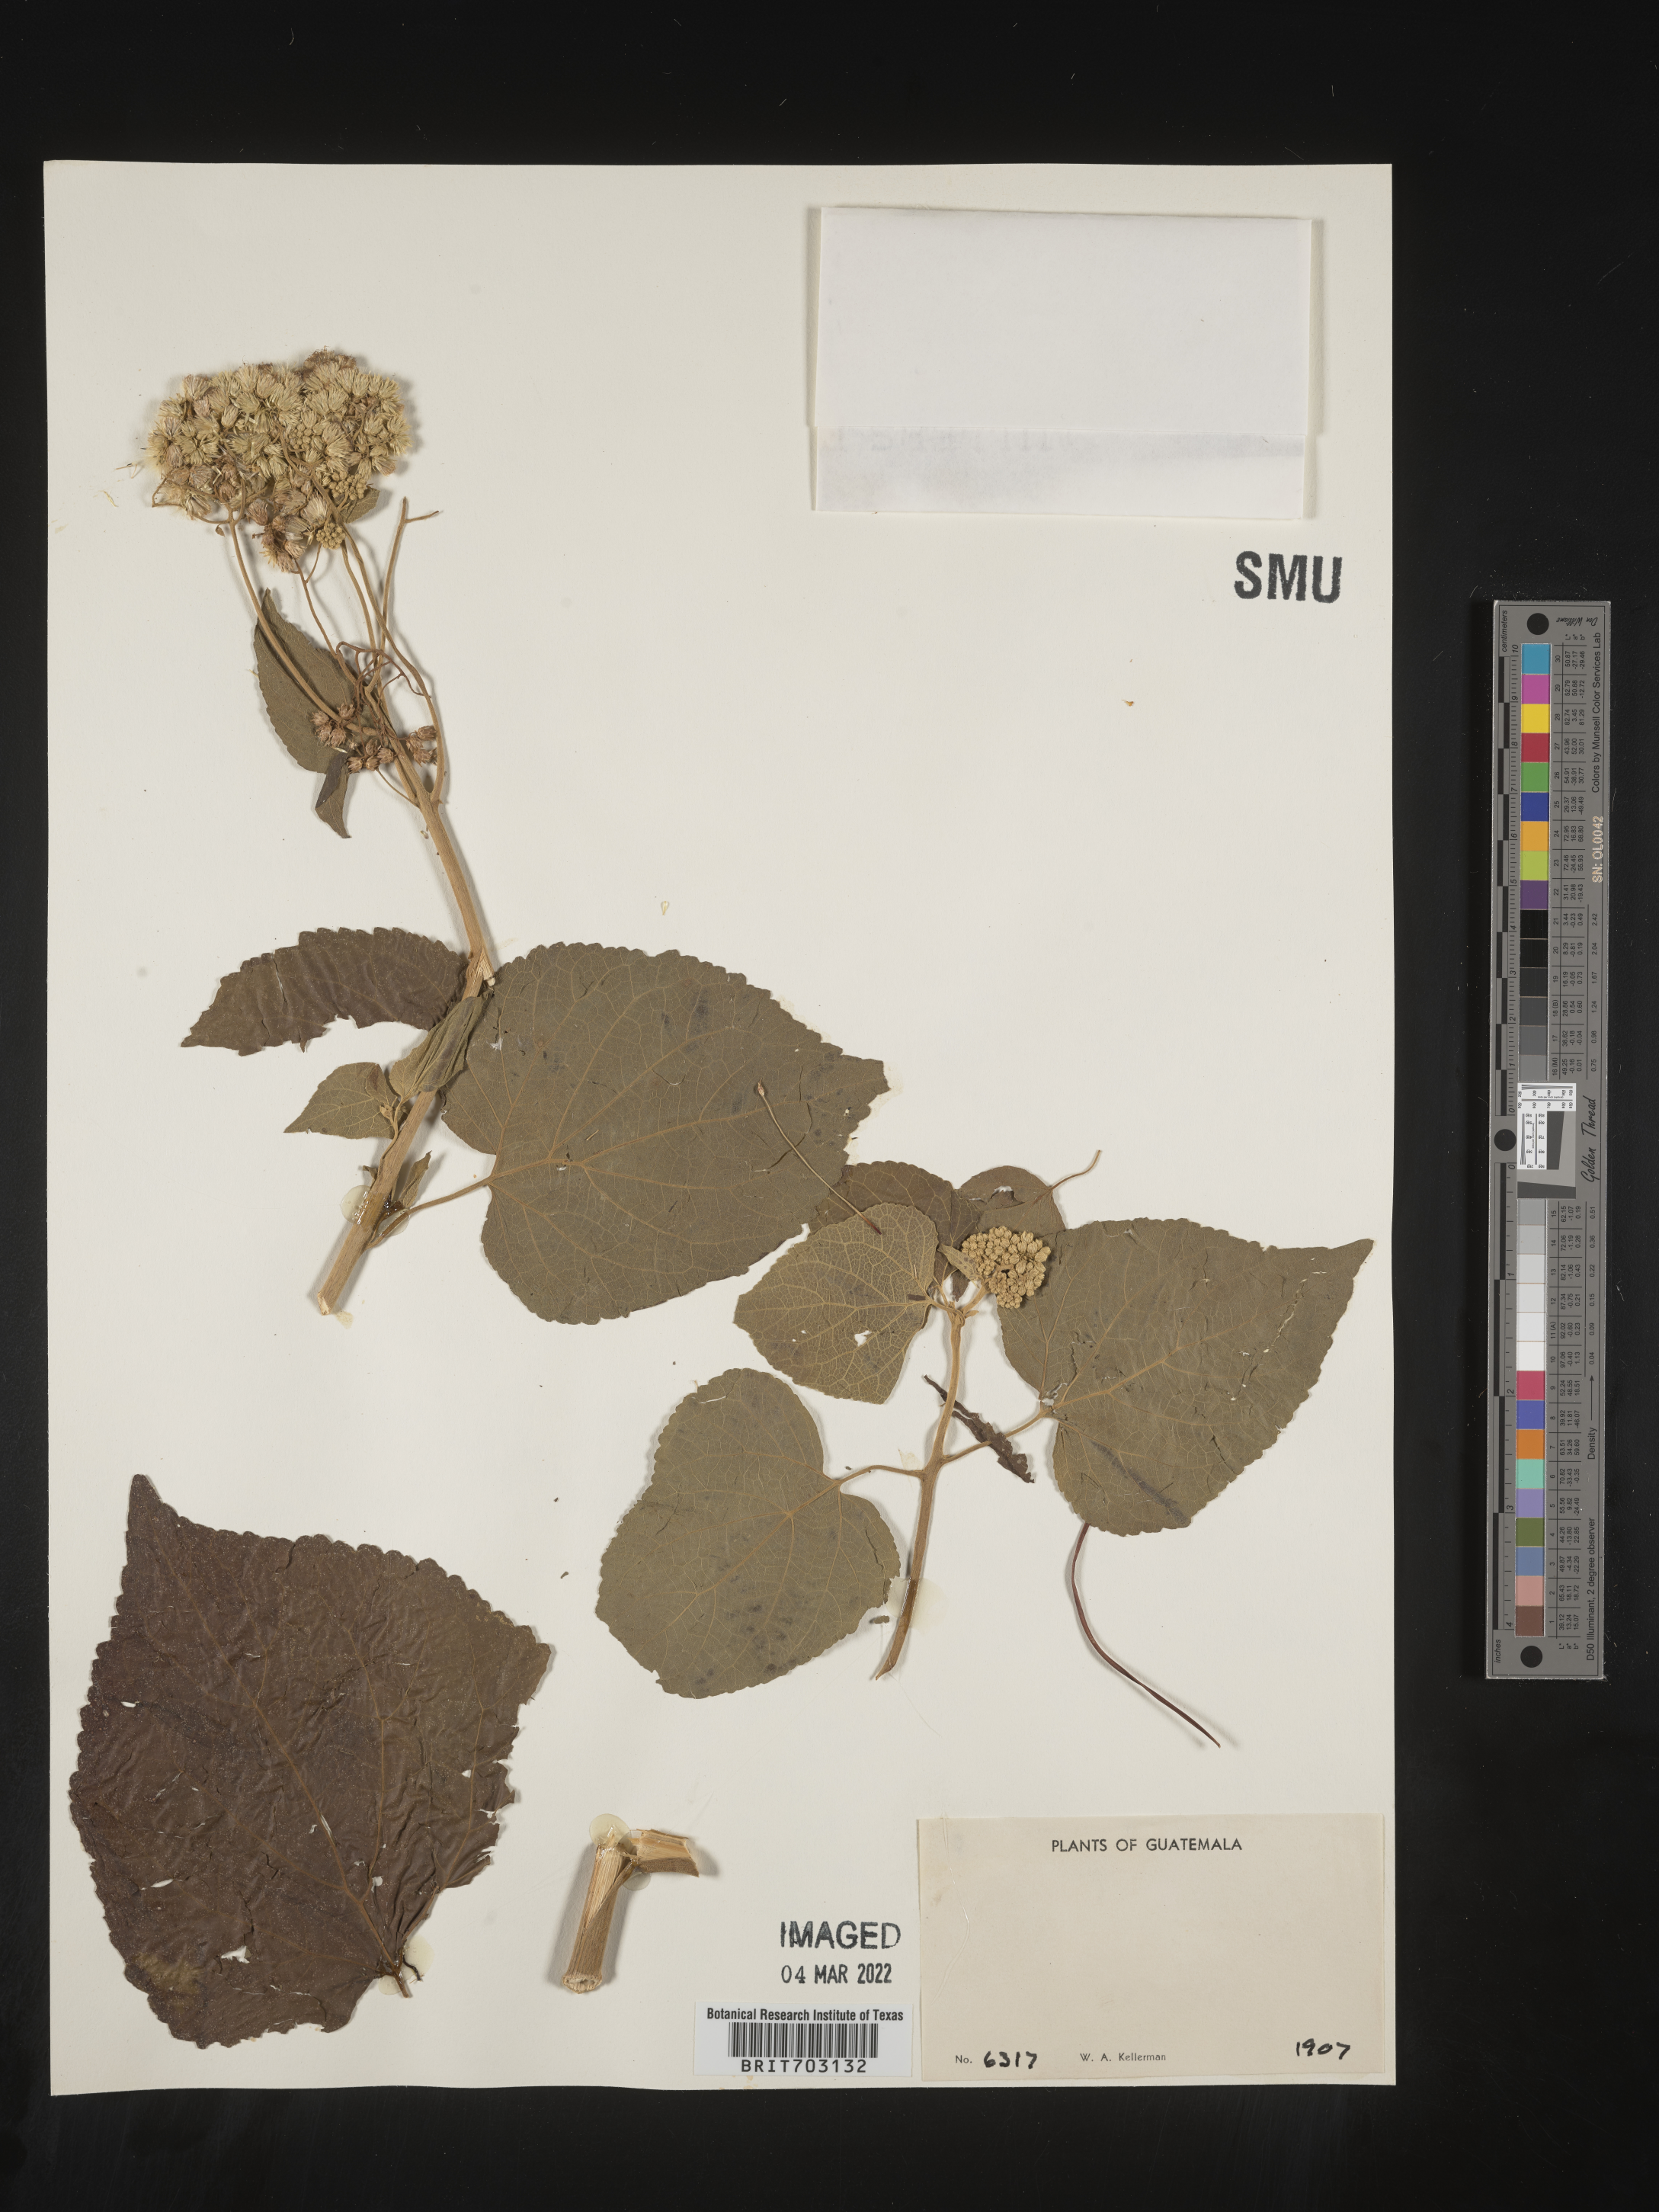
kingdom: Plantae
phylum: Tracheophyta
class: Magnoliopsida
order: Asterales
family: Asteraceae
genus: Eupatorium
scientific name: Eupatorium
